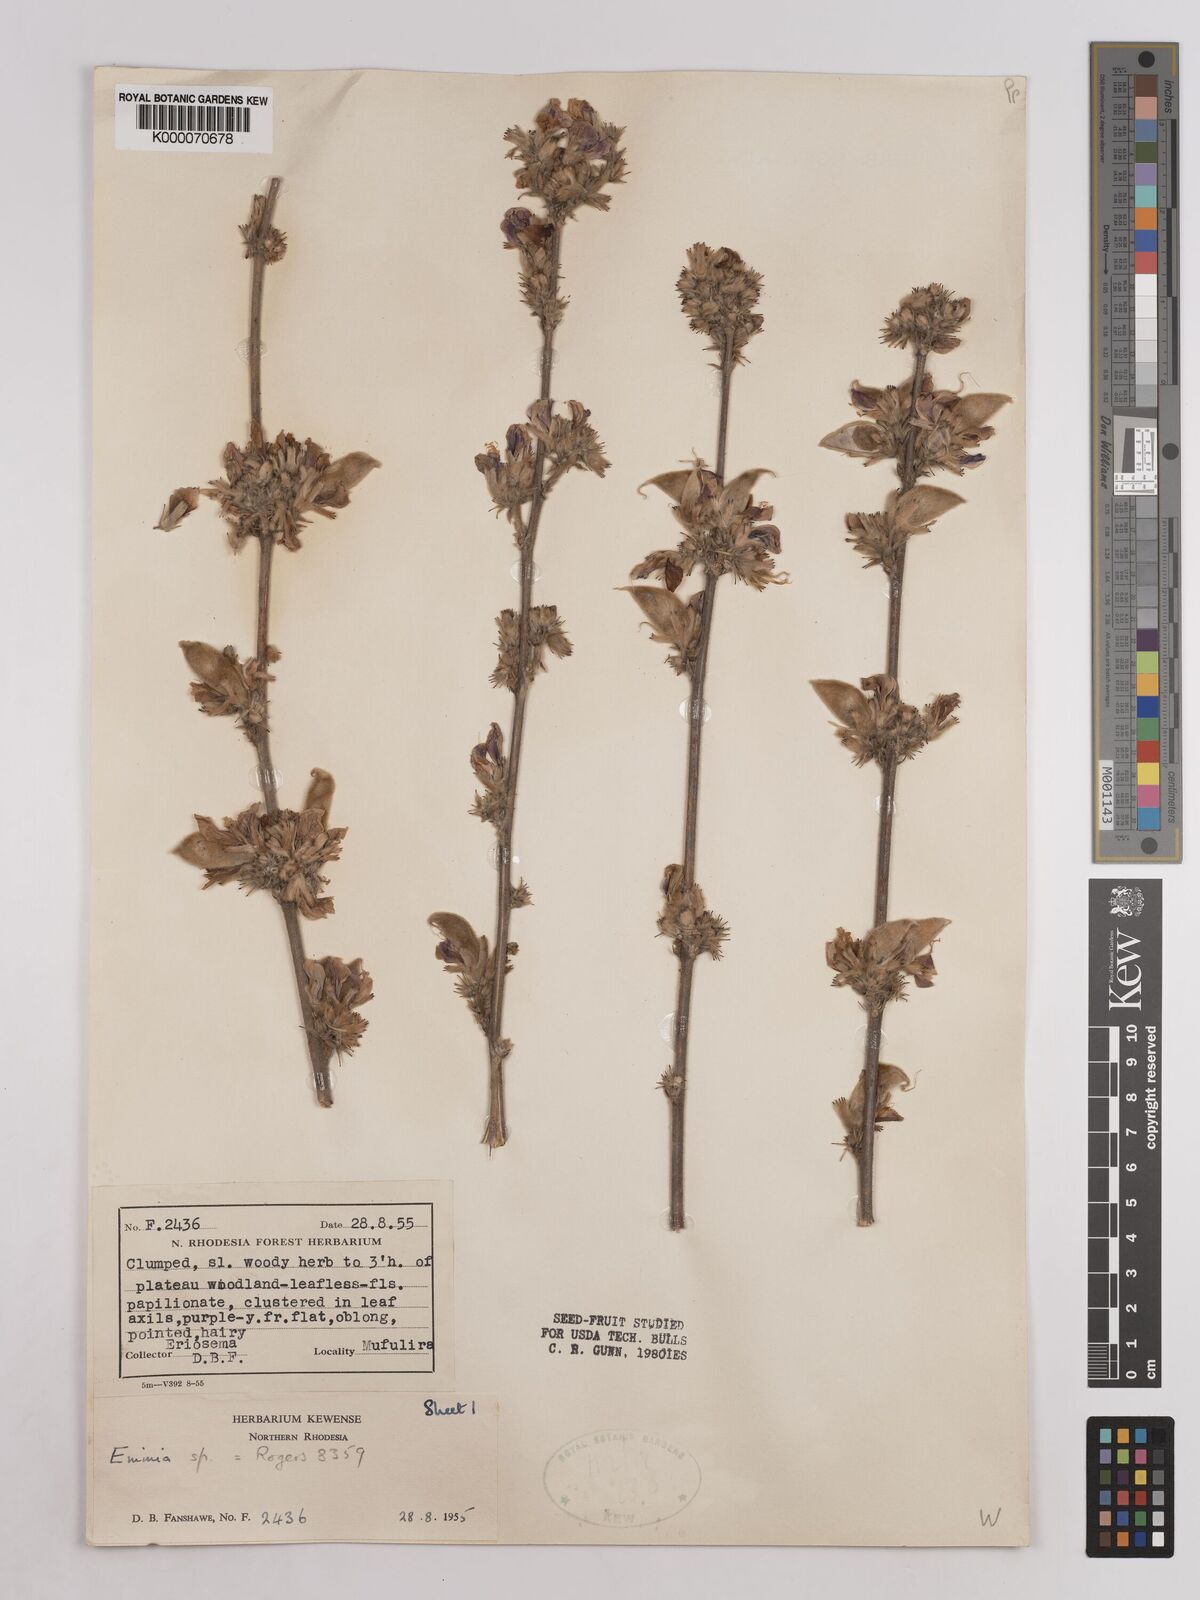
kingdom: Plantae
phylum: Tracheophyta
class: Magnoliopsida
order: Fabales
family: Fabaceae
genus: Eminia
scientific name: Eminia harmsiana
